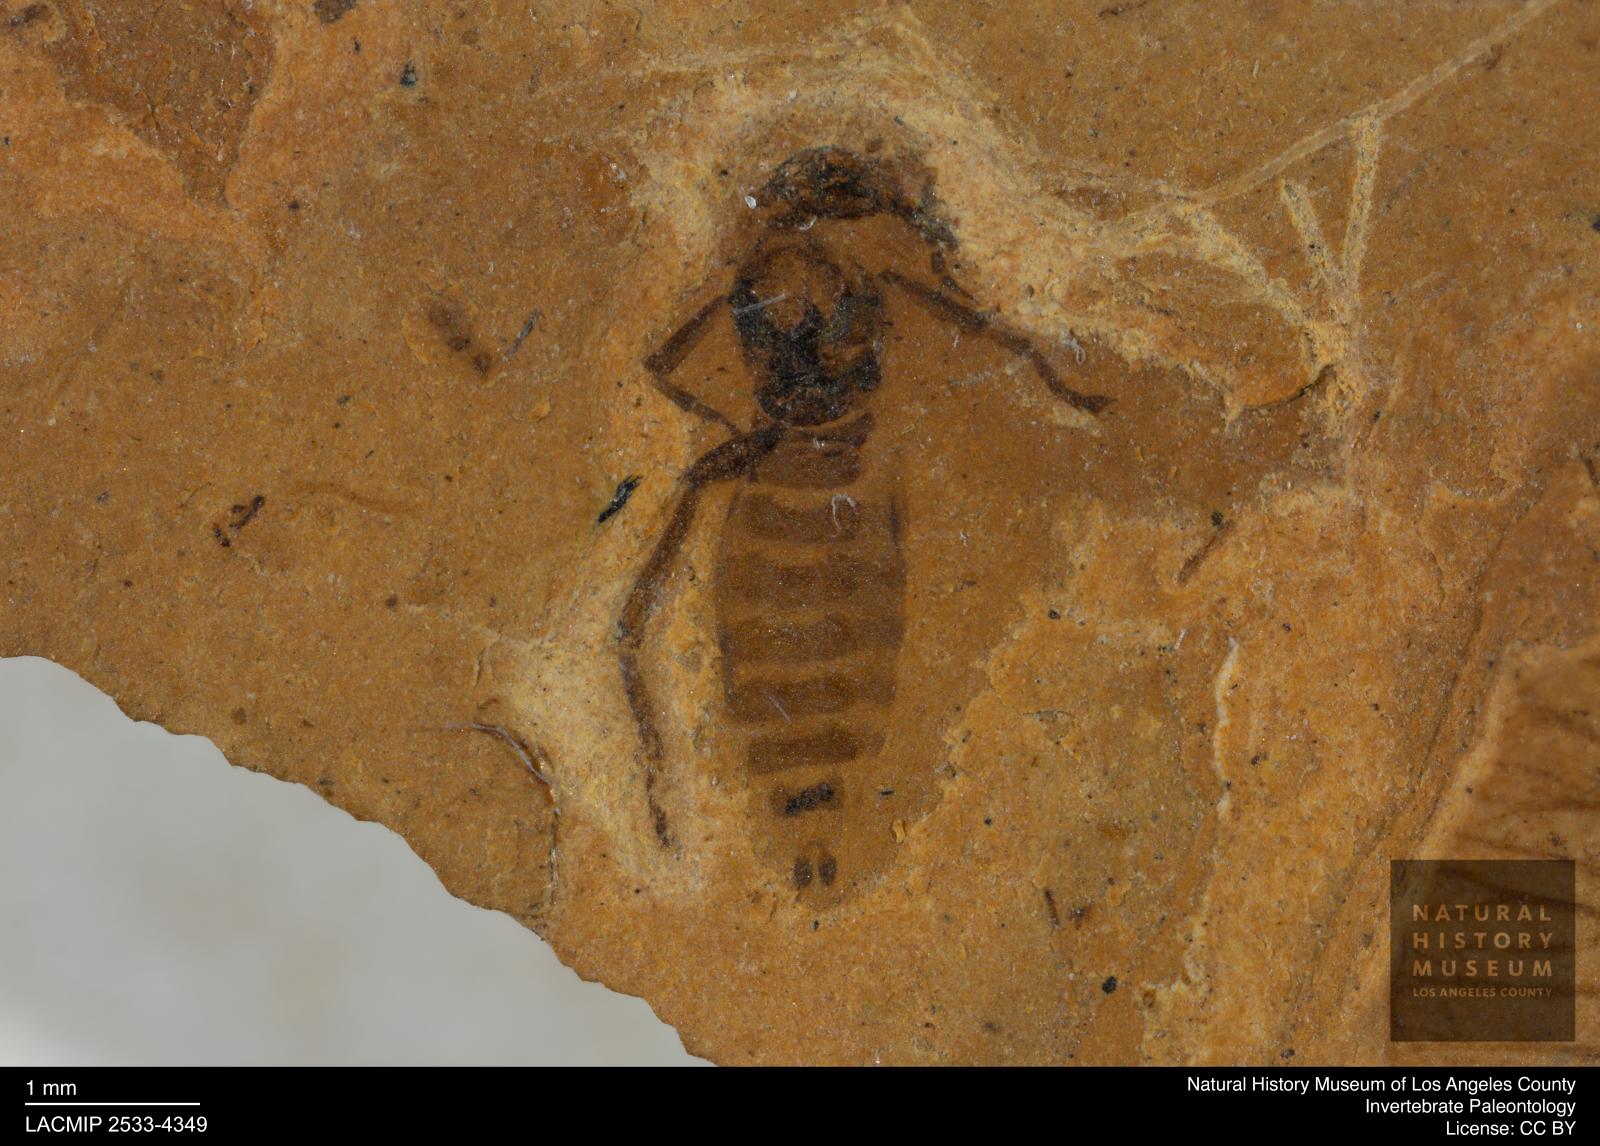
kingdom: Animalia
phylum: Arthropoda
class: Insecta
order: Diptera
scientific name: Diptera
